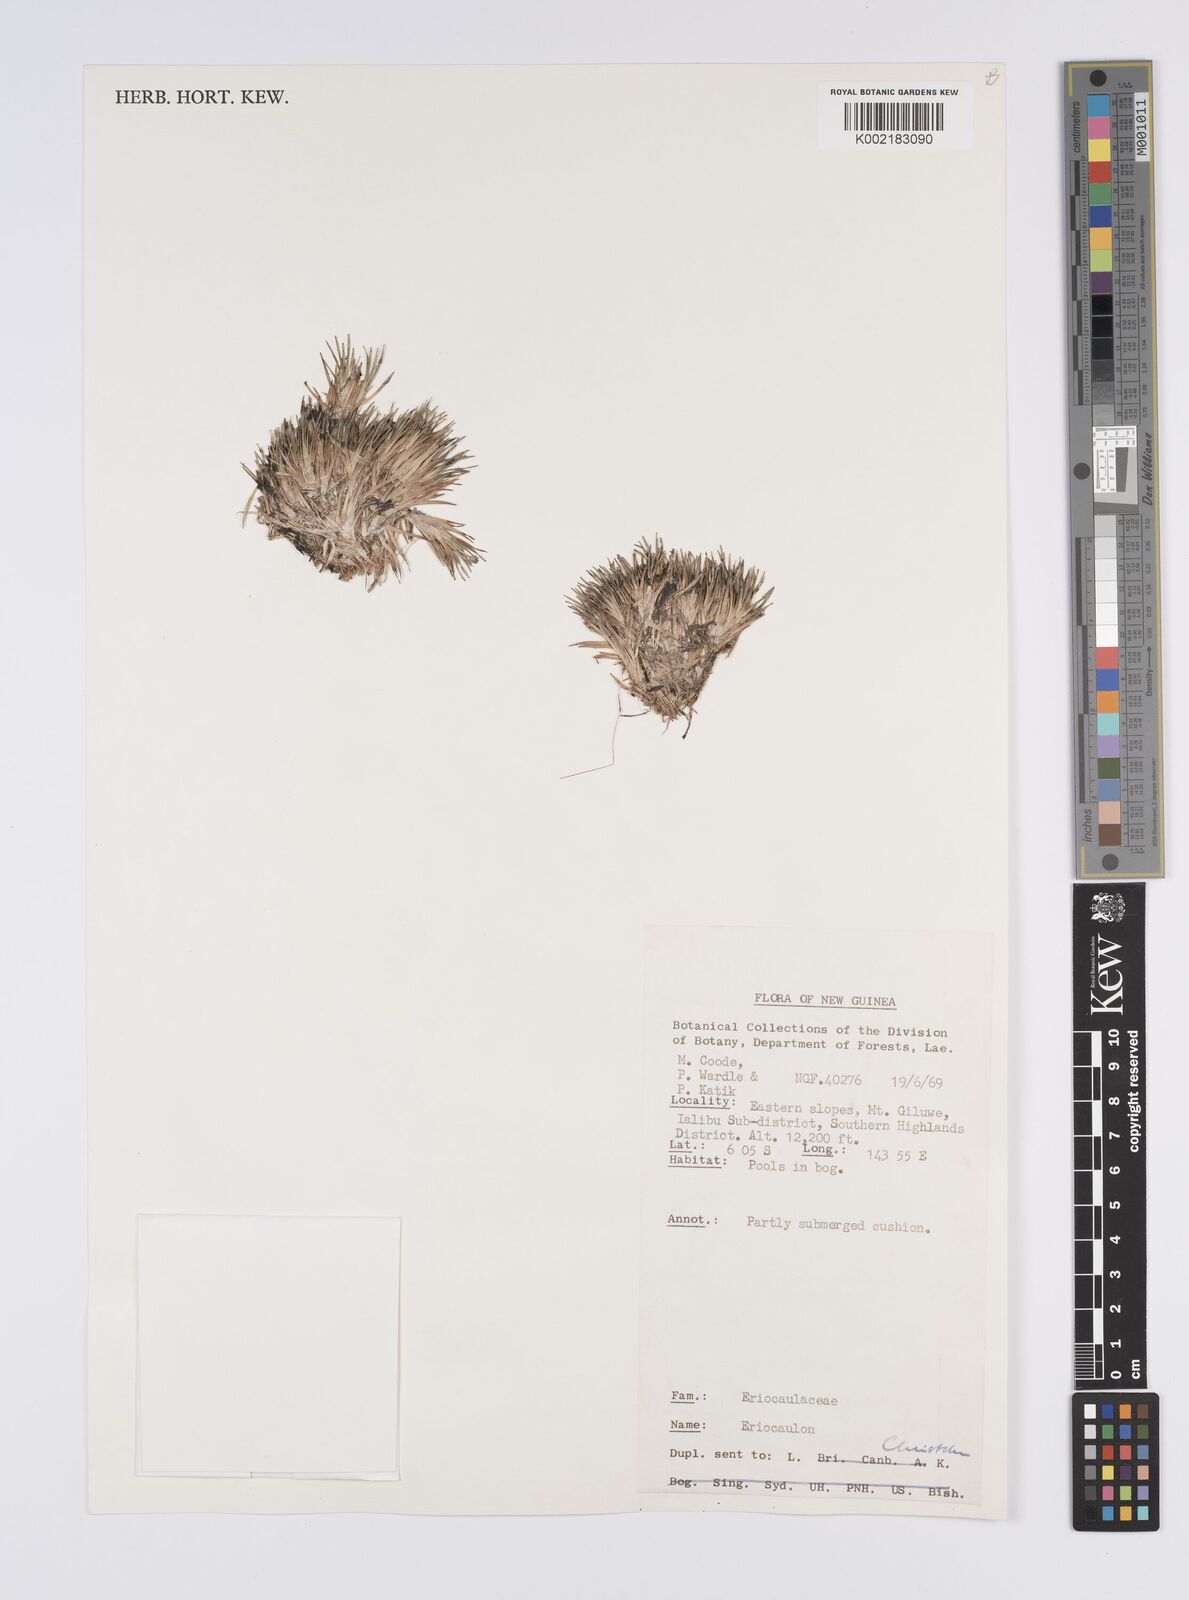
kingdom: Plantae
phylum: Tracheophyta
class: Liliopsida
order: Poales
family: Eriocaulaceae
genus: Eriocaulon
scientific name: Eriocaulon
